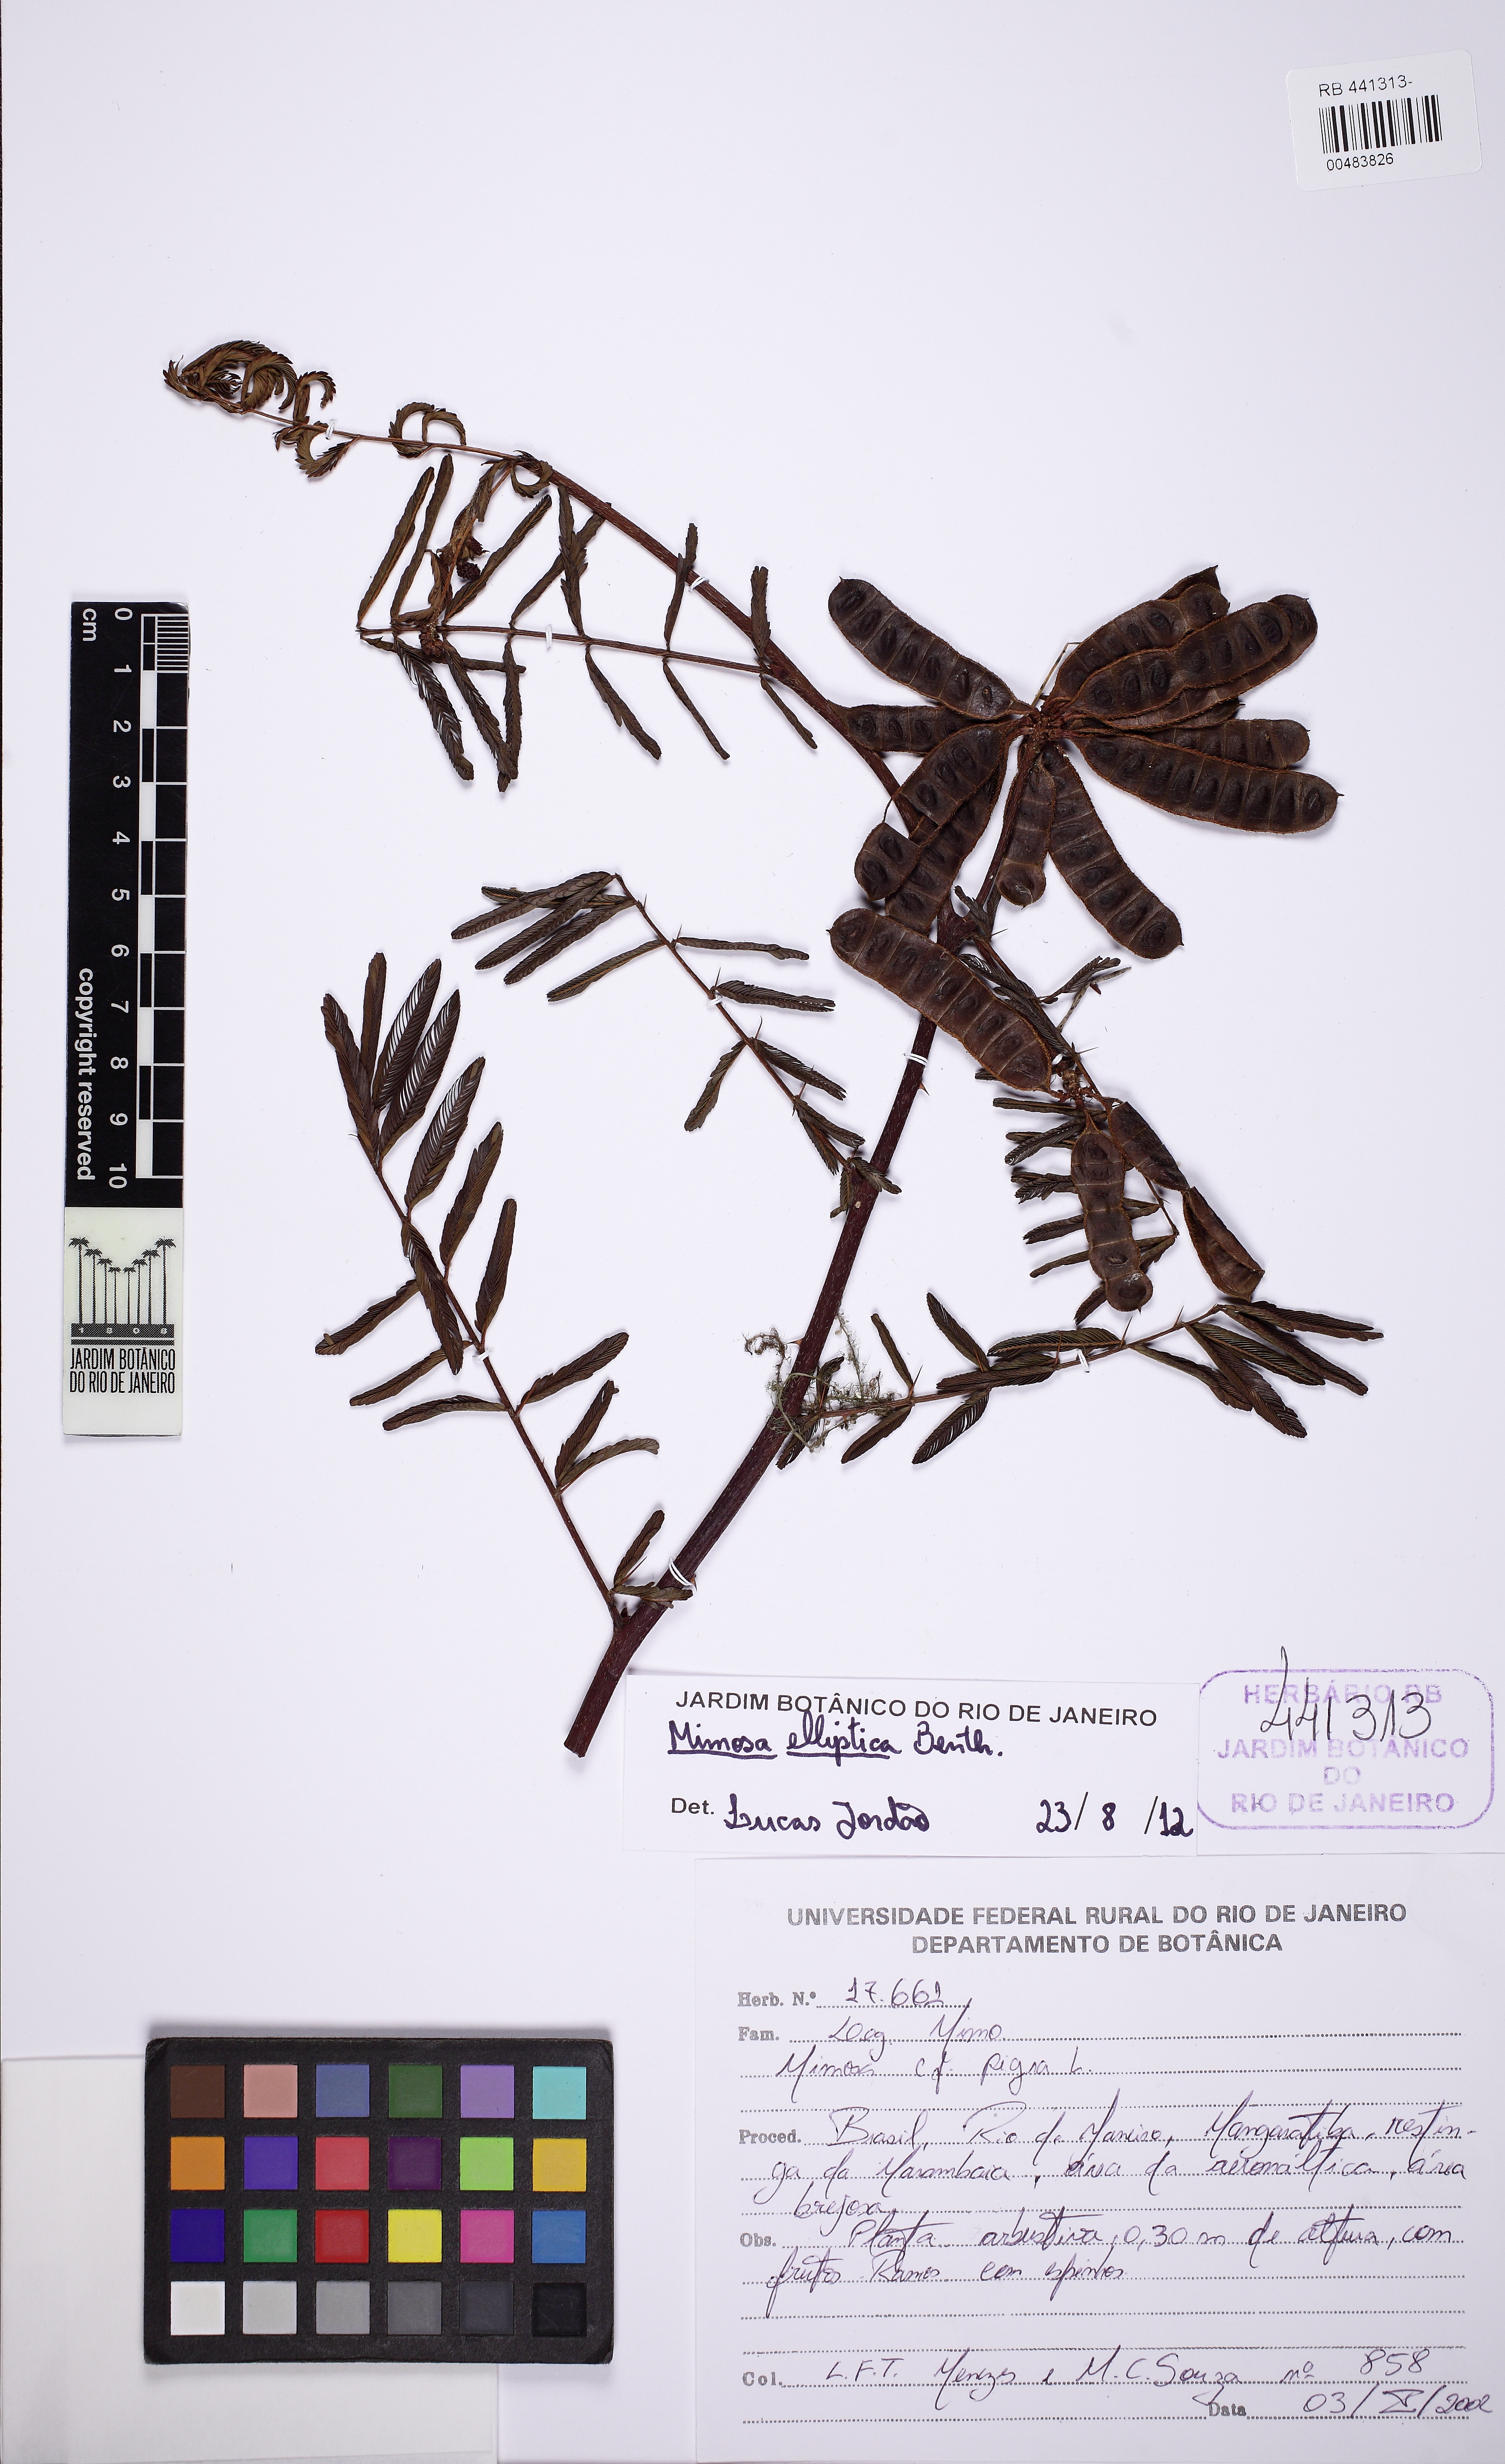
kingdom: Plantae
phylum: Tracheophyta
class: Magnoliopsida
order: Fabales
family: Fabaceae
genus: Mimosa
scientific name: Mimosa elliptica
